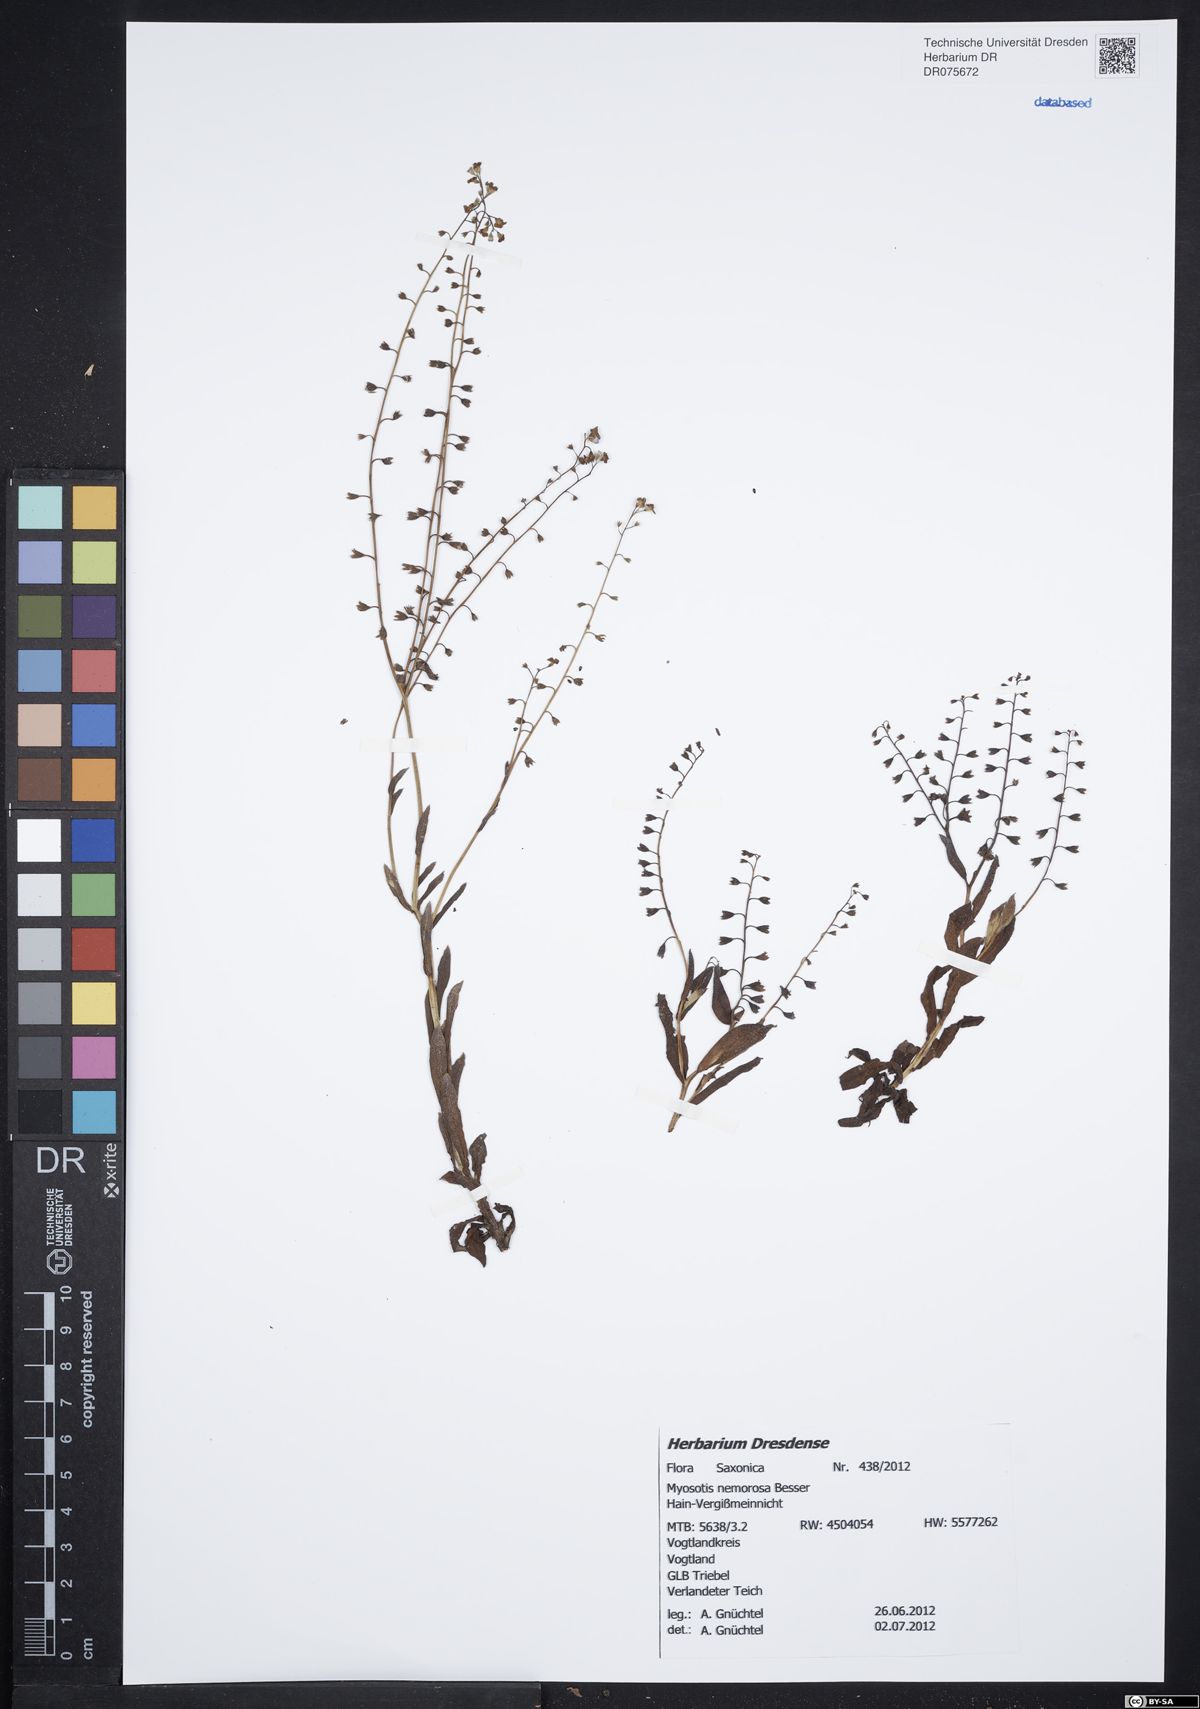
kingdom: Plantae
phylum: Tracheophyta
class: Magnoliopsida
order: Boraginales
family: Boraginaceae
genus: Myosotis
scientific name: Myosotis nemorosa
